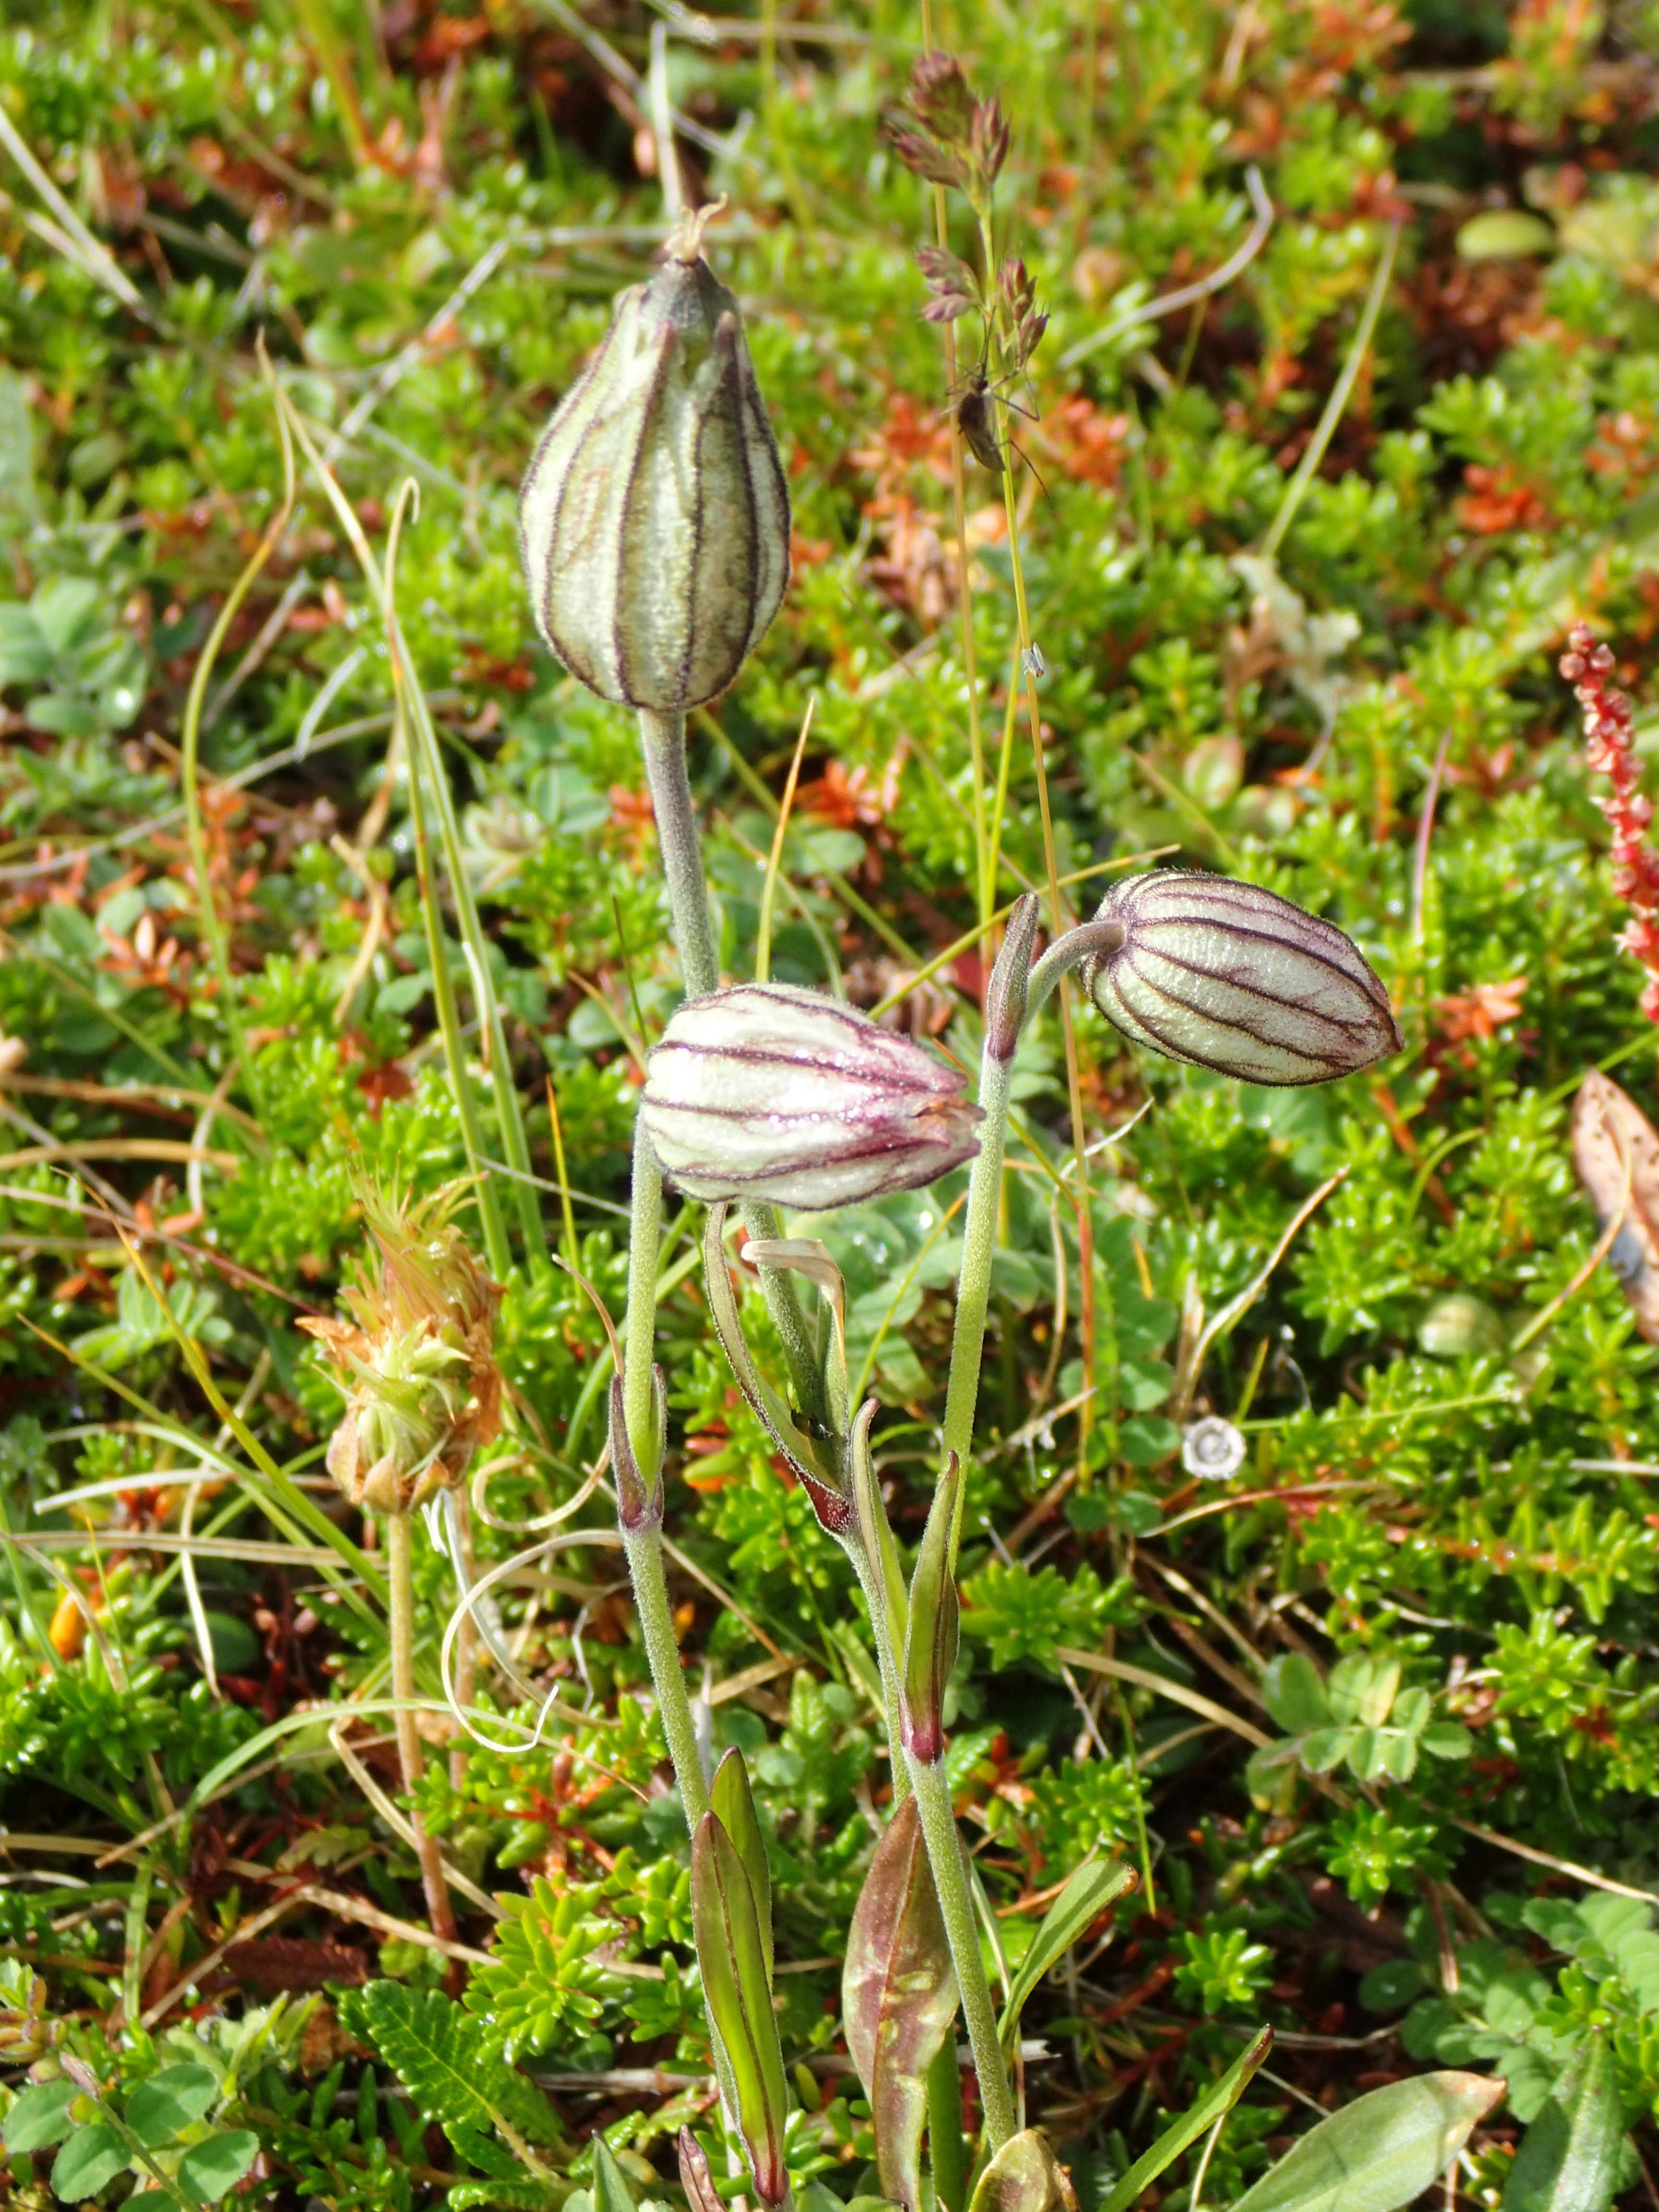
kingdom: Plantae
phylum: Tracheophyta
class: Magnoliopsida
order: Caryophyllales
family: Caryophyllaceae
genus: Silene
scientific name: Silene wahlbergella
